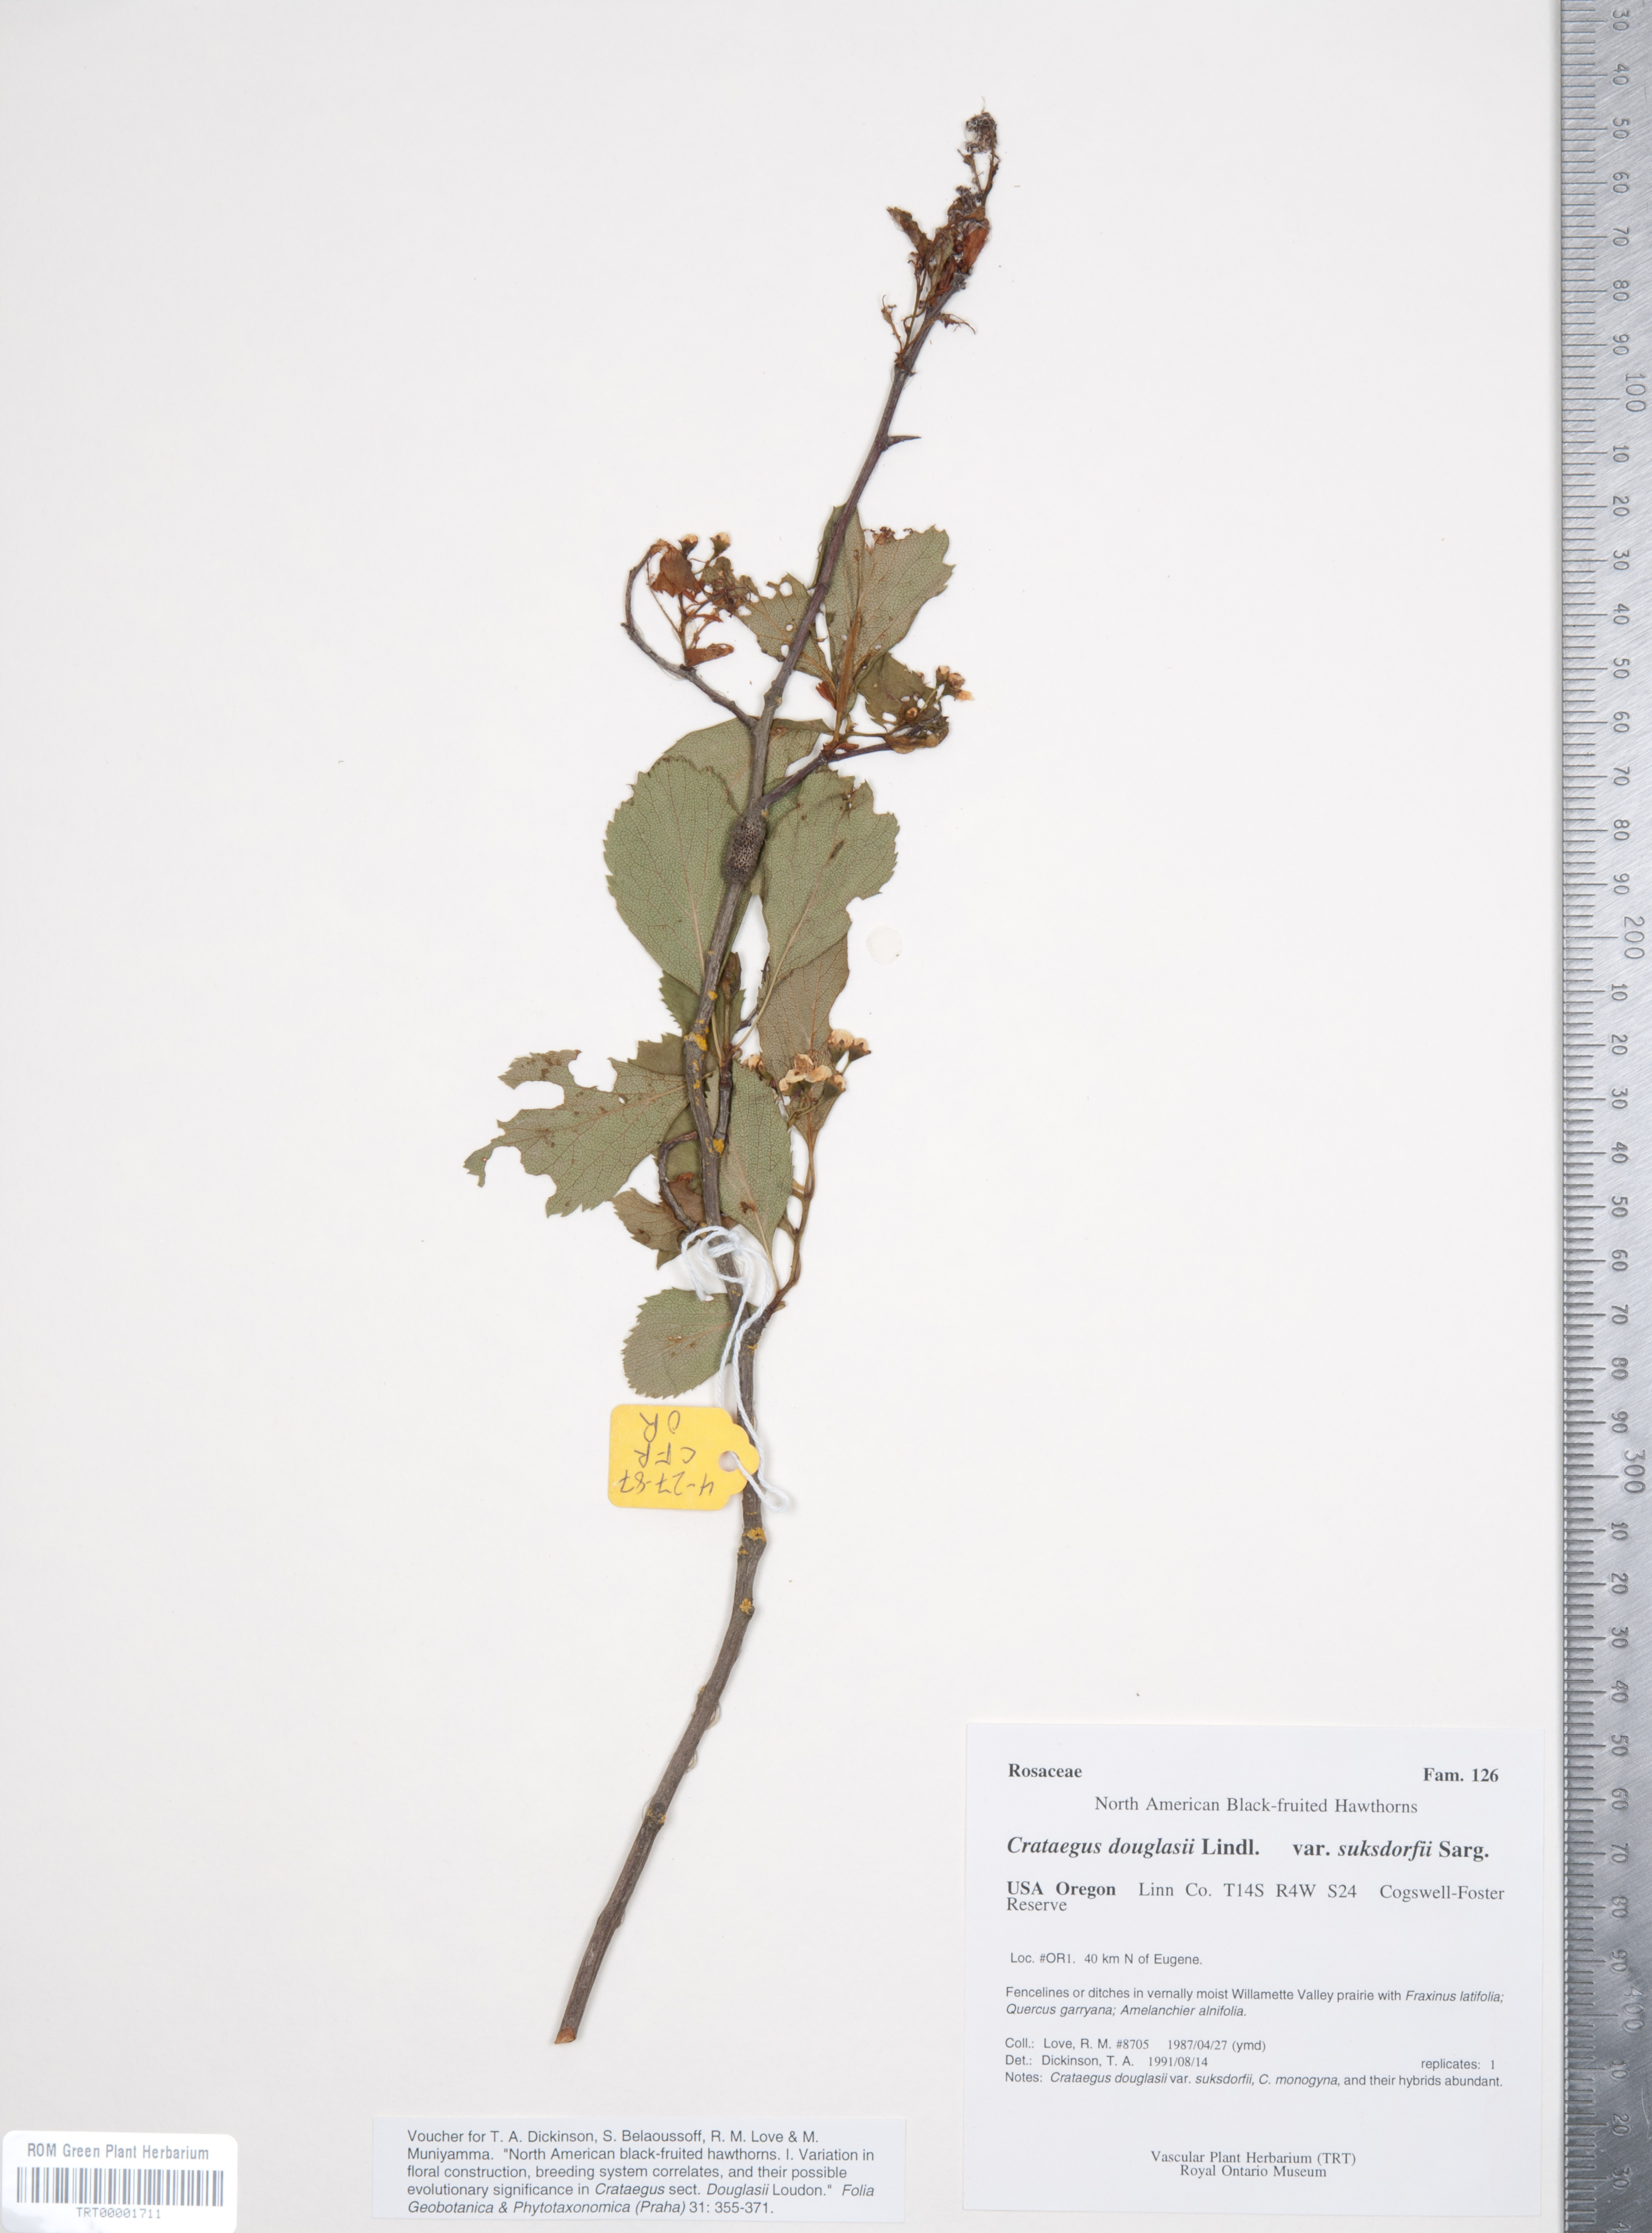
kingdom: Plantae
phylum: Tracheophyta
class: Magnoliopsida
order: Rosales
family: Rosaceae
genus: Crataegus
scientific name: Crataegus gaylussacia
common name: Huckleberry hawthorn
